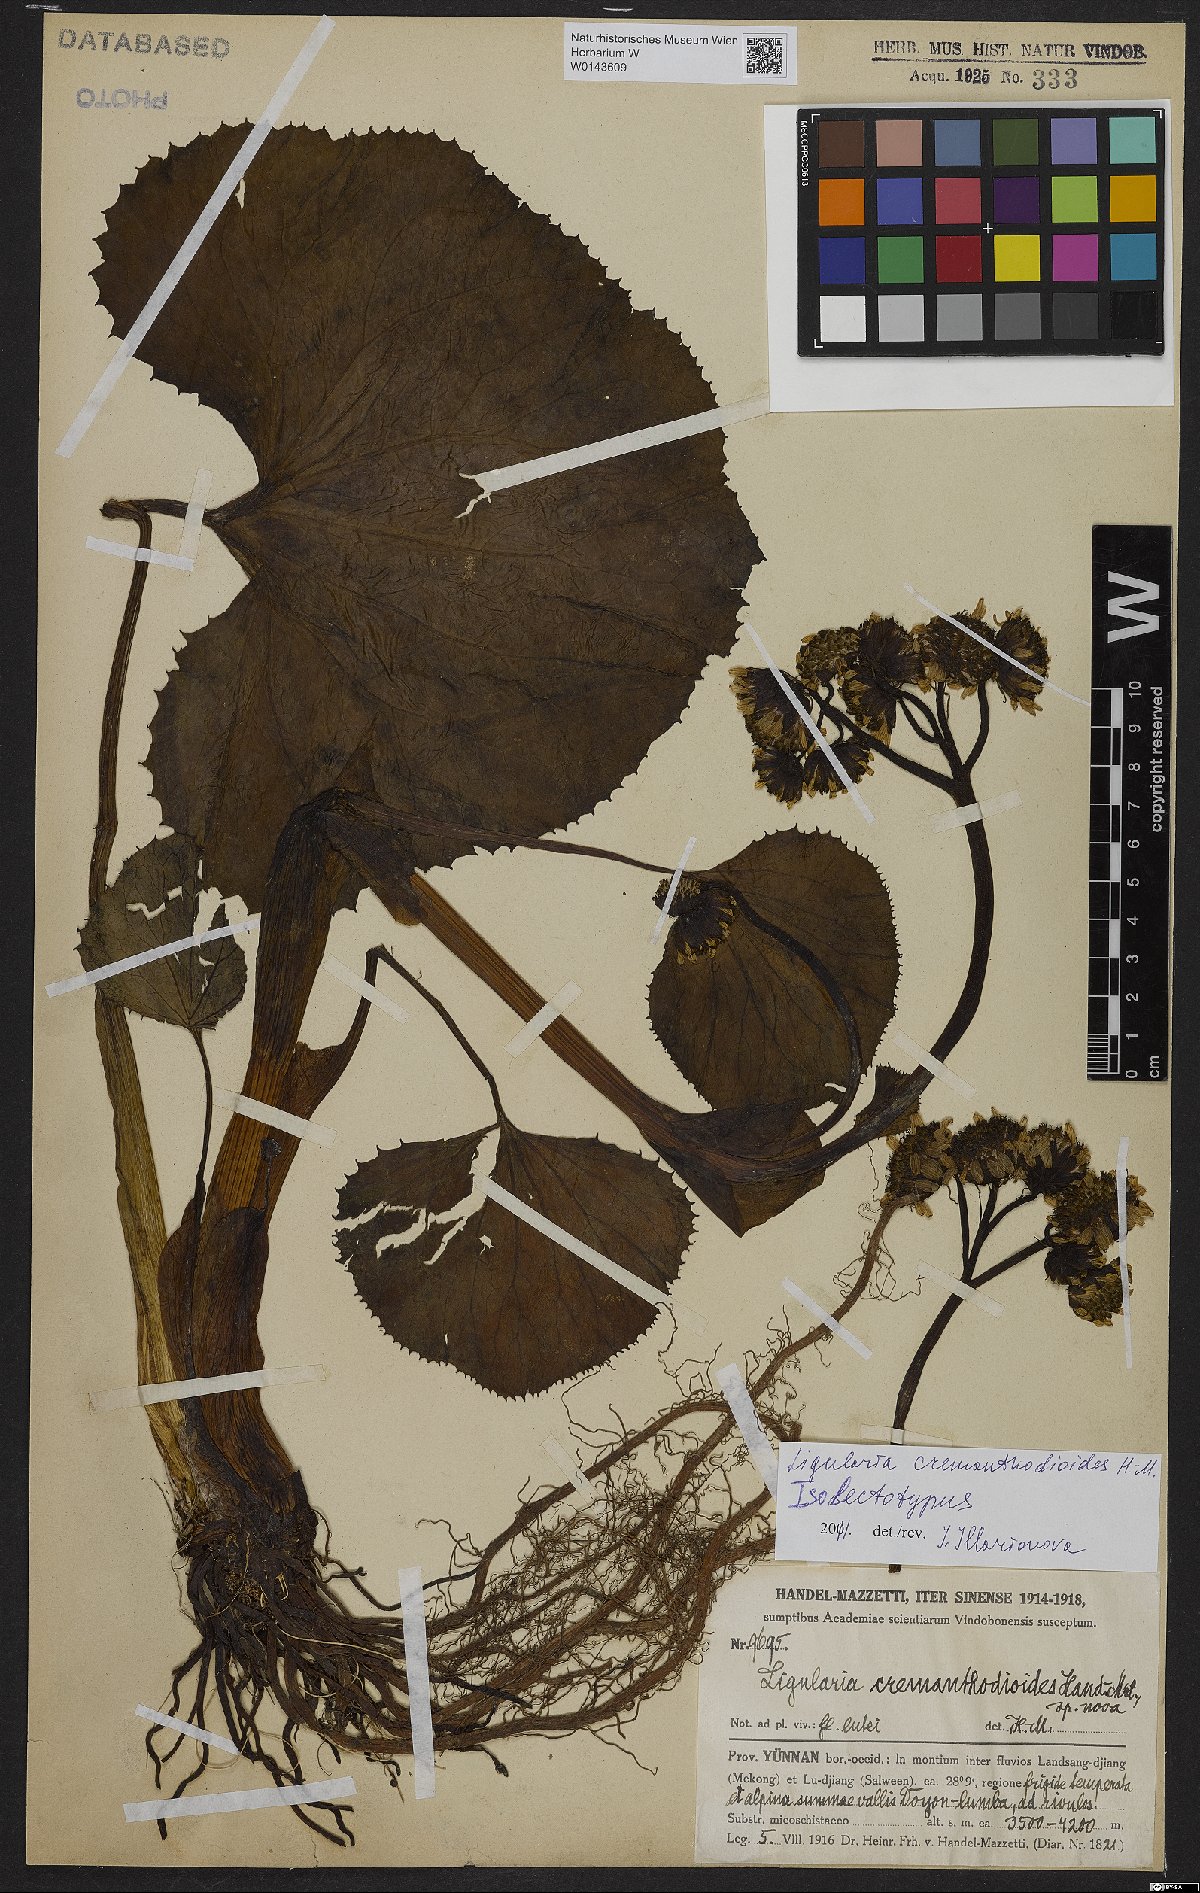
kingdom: Plantae
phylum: Tracheophyta
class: Magnoliopsida
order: Asterales
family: Asteraceae
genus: Ligularia
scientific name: Ligularia cremanthodioides
